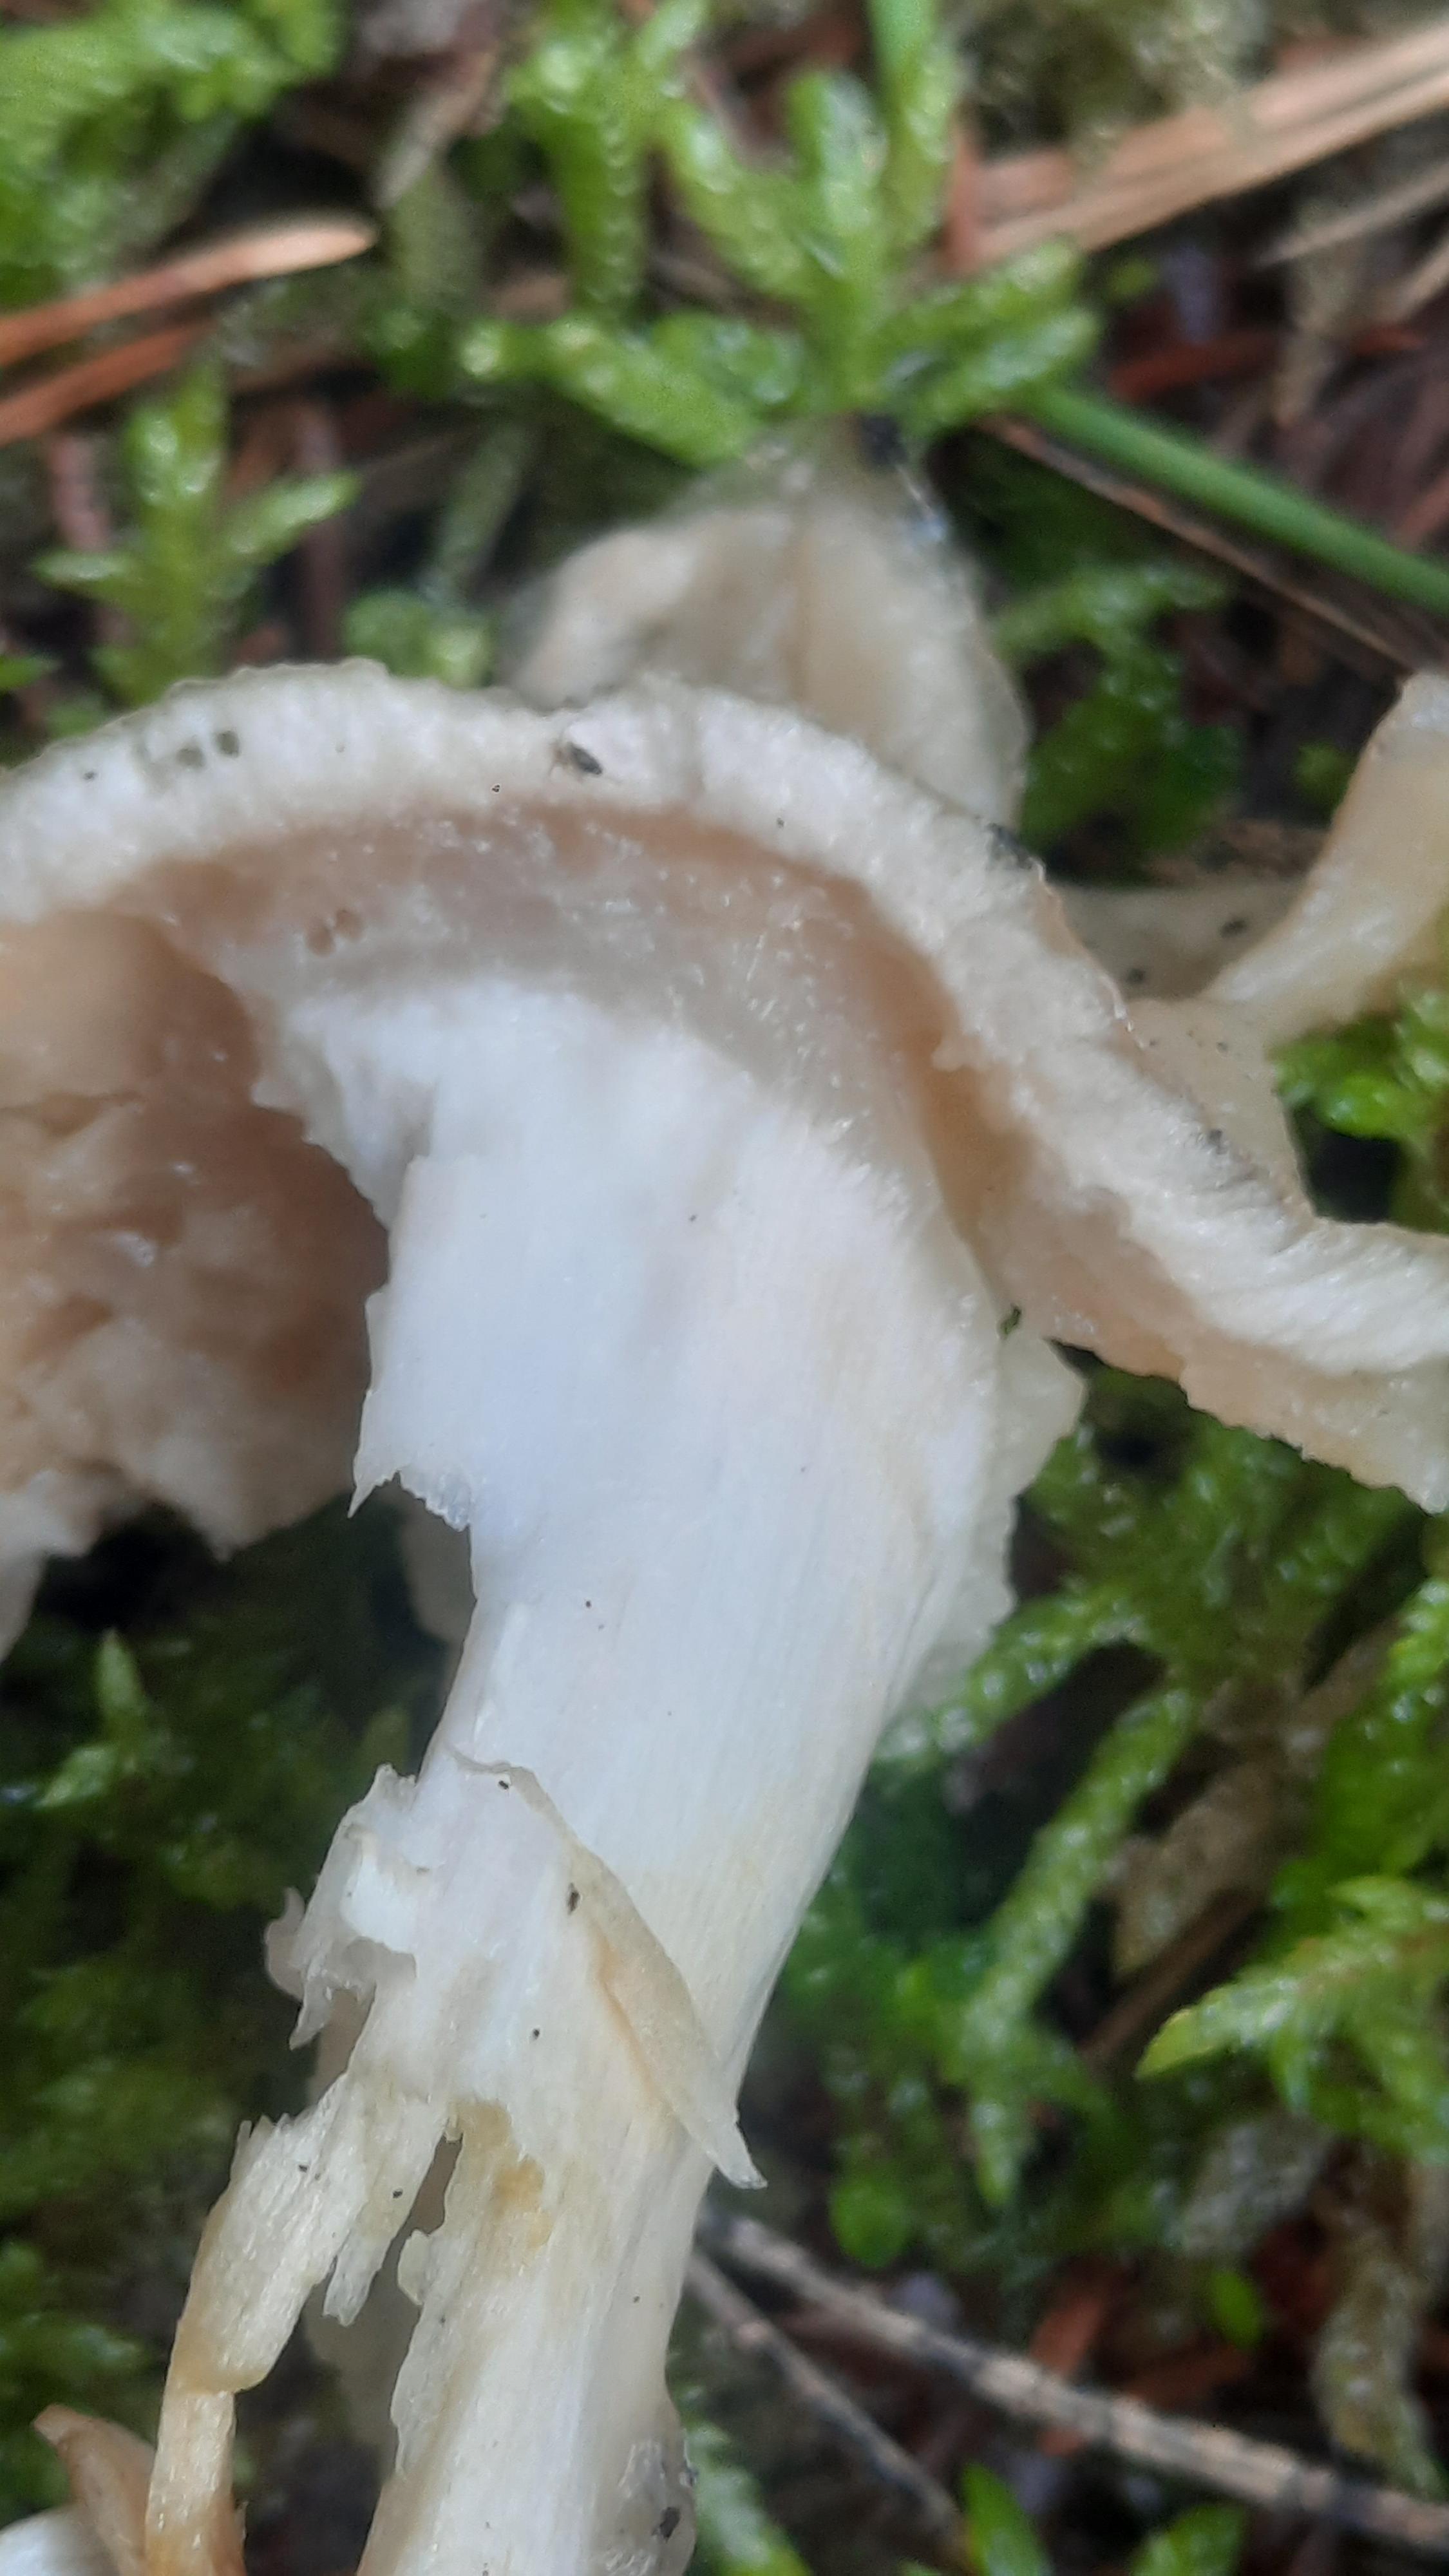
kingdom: Fungi
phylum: Basidiomycota
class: Agaricomycetes
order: Boletales
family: Suillaceae
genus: Suillus
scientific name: Suillus placidus
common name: elfenbens-slimrørhat
